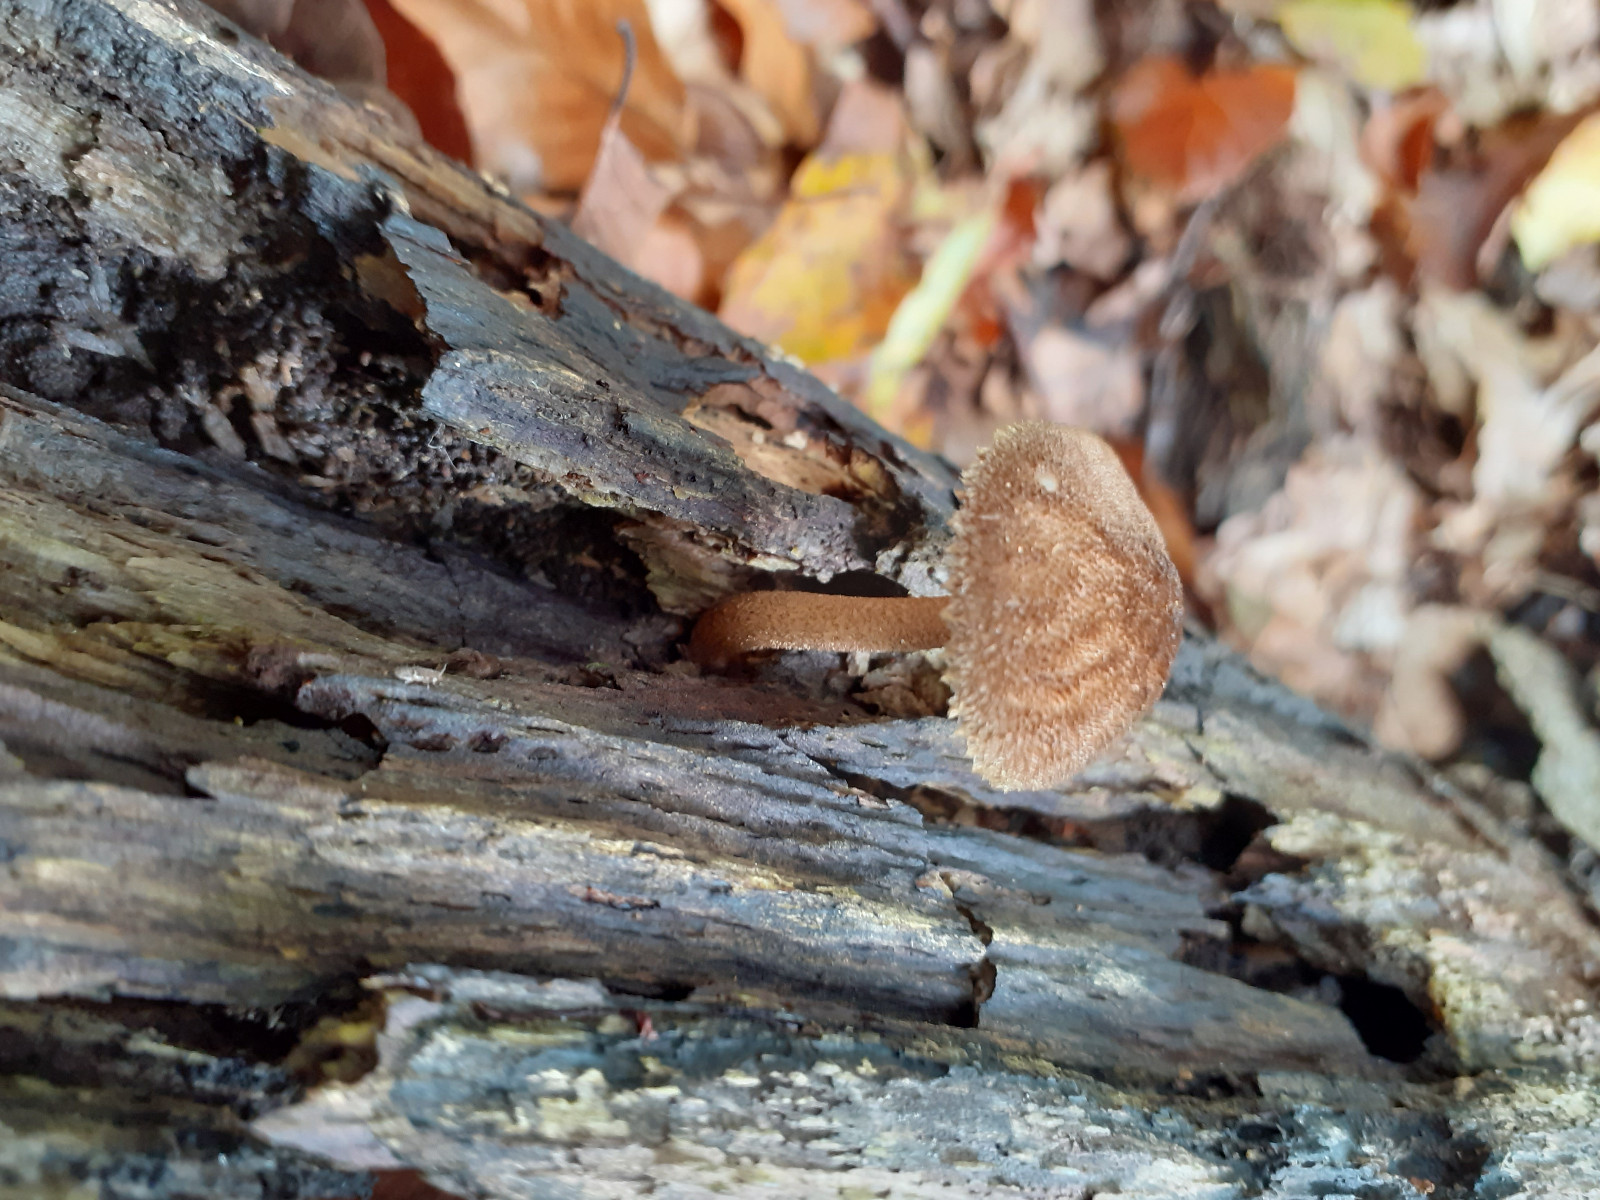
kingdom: Fungi
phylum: Basidiomycota
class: Agaricomycetes
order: Agaricales
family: Pluteaceae
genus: Pluteus
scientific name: Pluteus umbrosus
